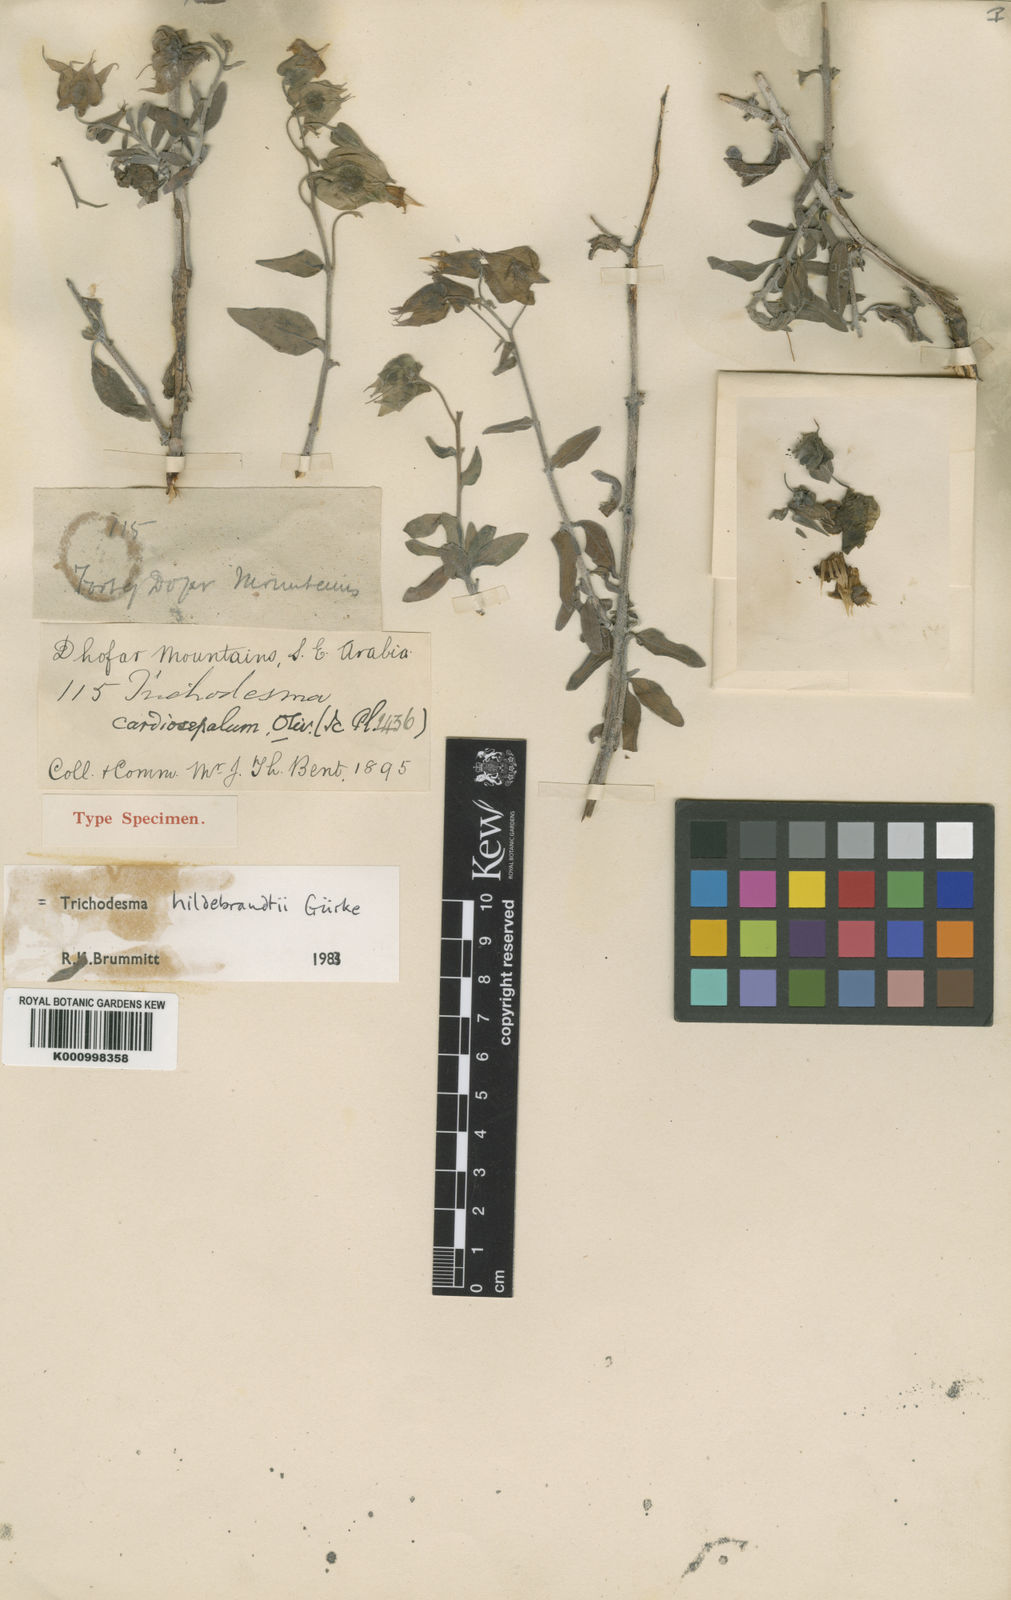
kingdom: Plantae
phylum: Tracheophyta
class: Magnoliopsida
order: Boraginales
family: Boraginaceae
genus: Trichodesma
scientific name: Trichodesma
